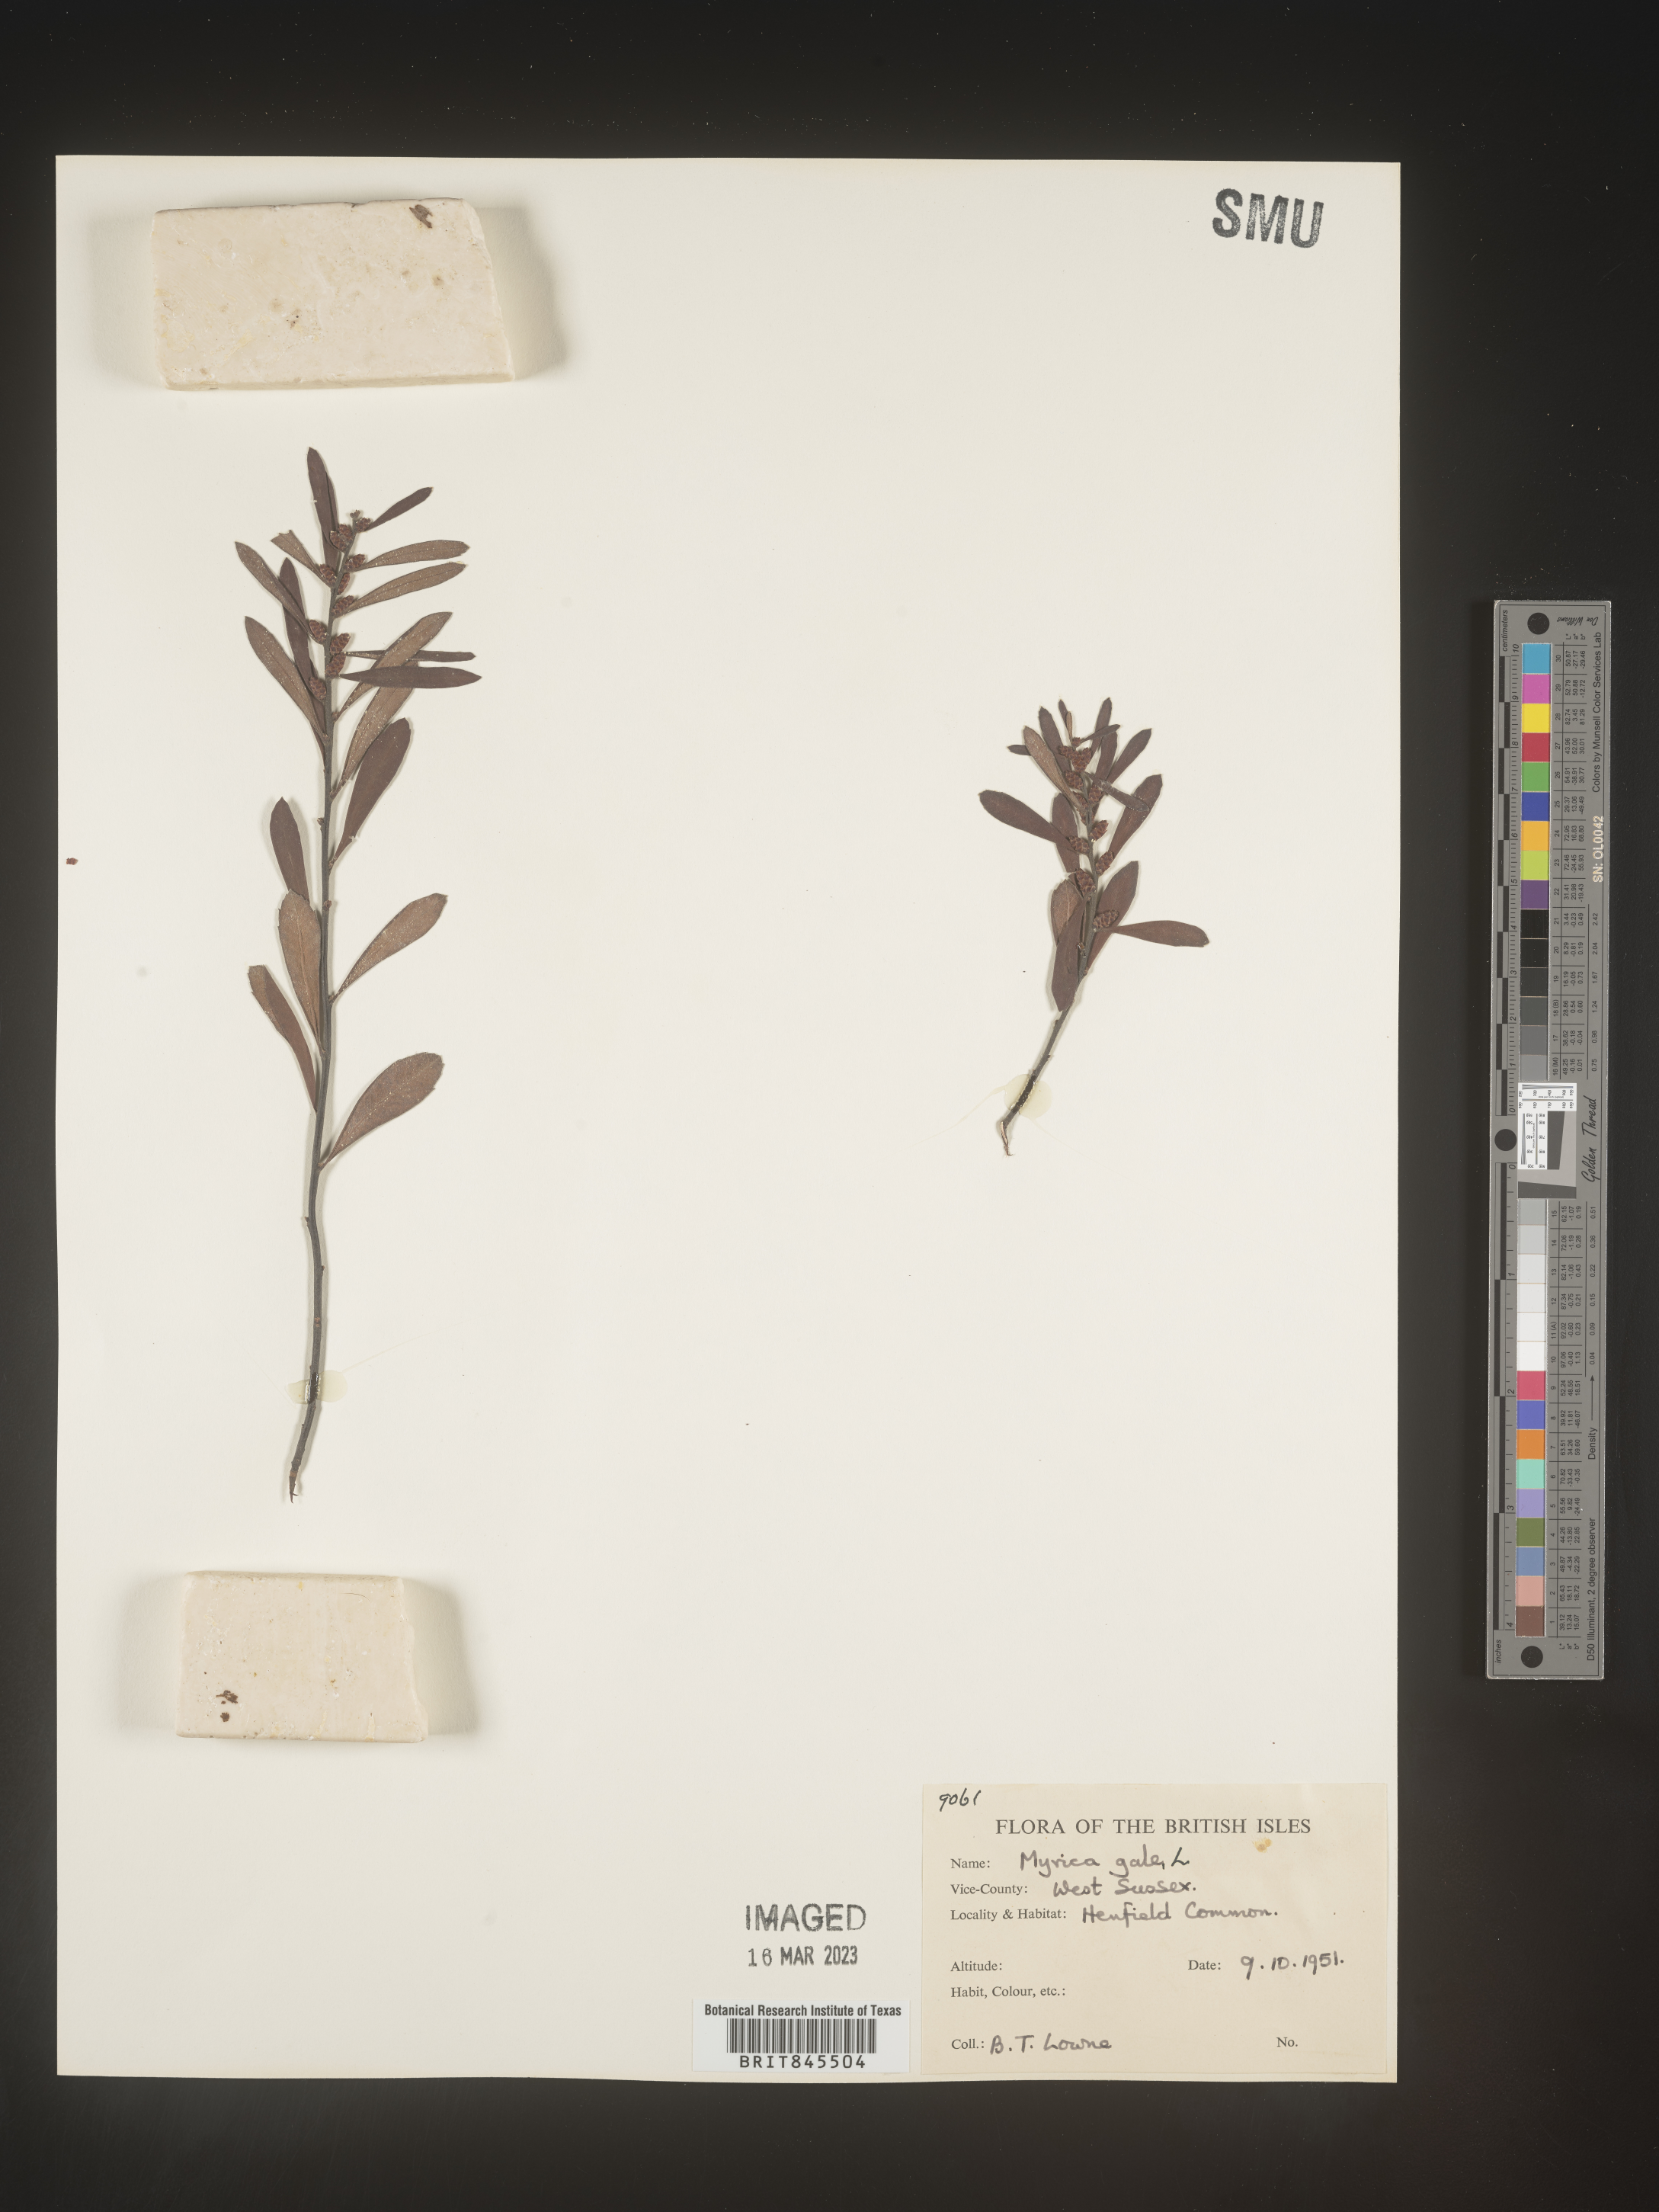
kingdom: Plantae
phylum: Tracheophyta
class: Magnoliopsida
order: Fagales
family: Myricaceae
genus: Myrica
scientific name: Myrica
